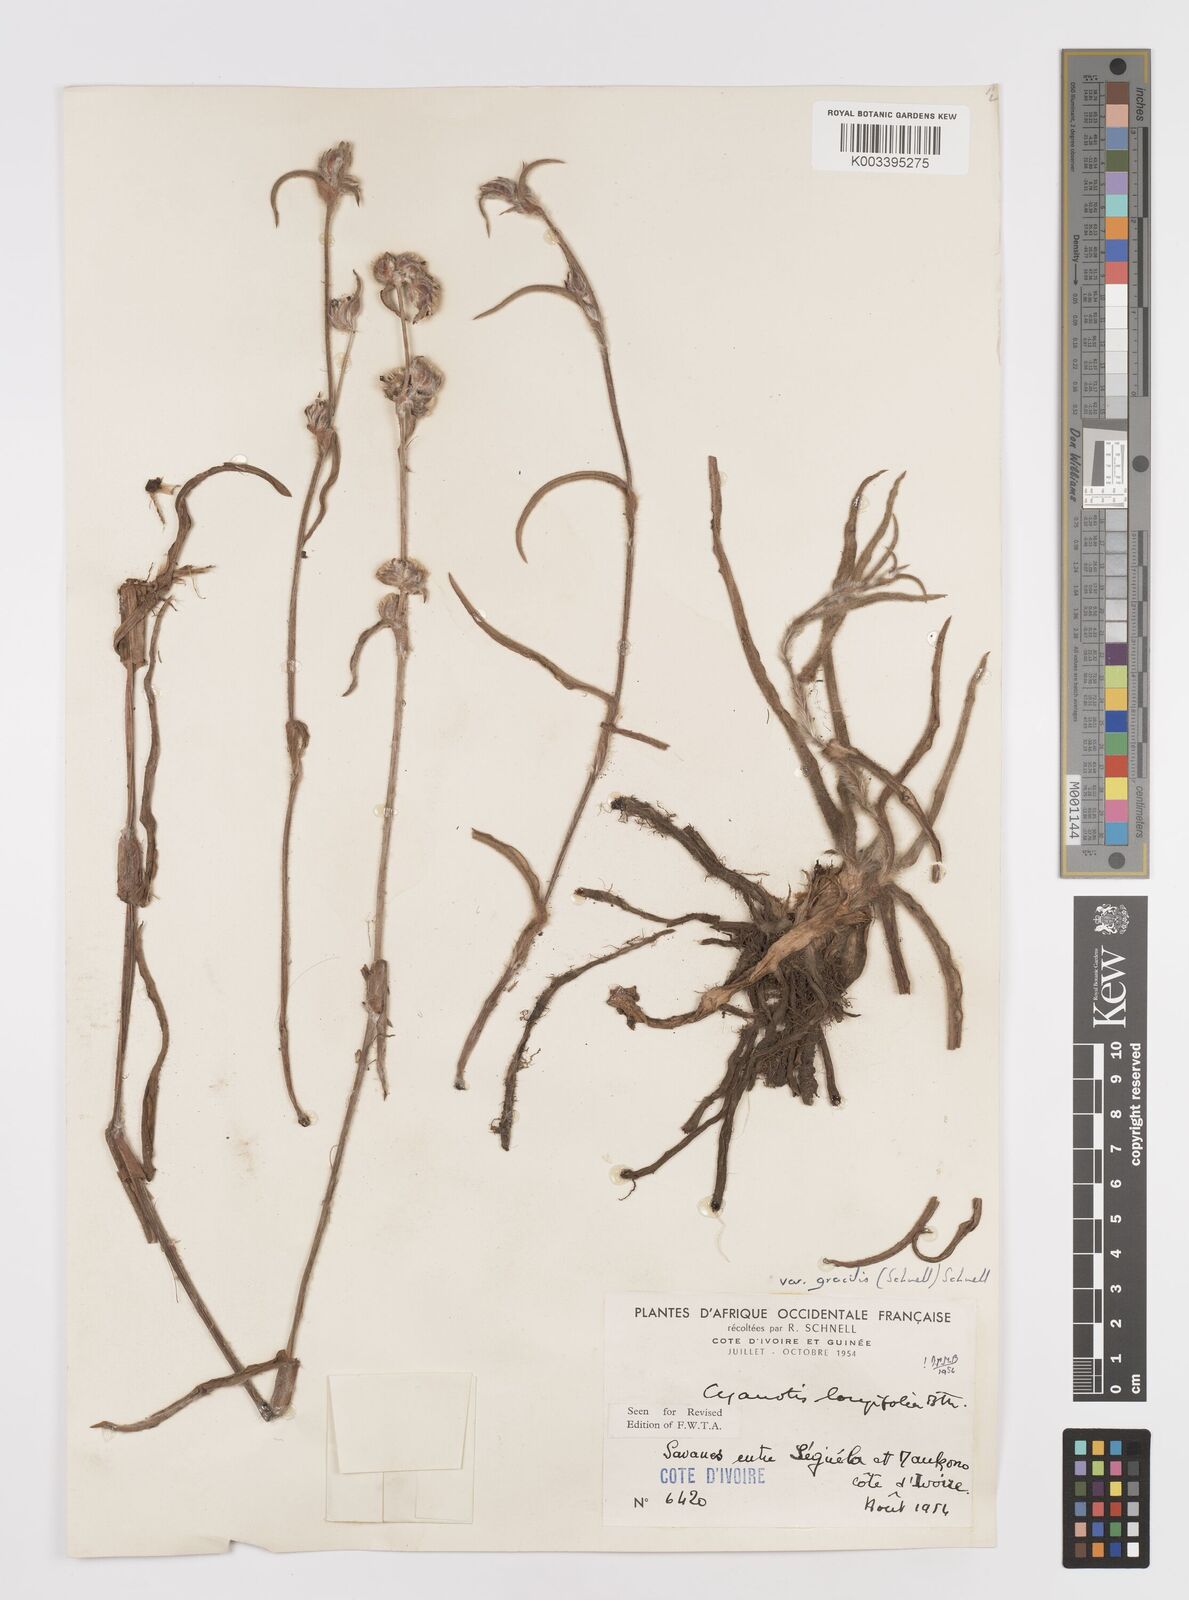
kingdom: Plantae
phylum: Tracheophyta
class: Liliopsida
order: Commelinales
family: Commelinaceae
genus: Cyanotis
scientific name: Cyanotis longifolia
